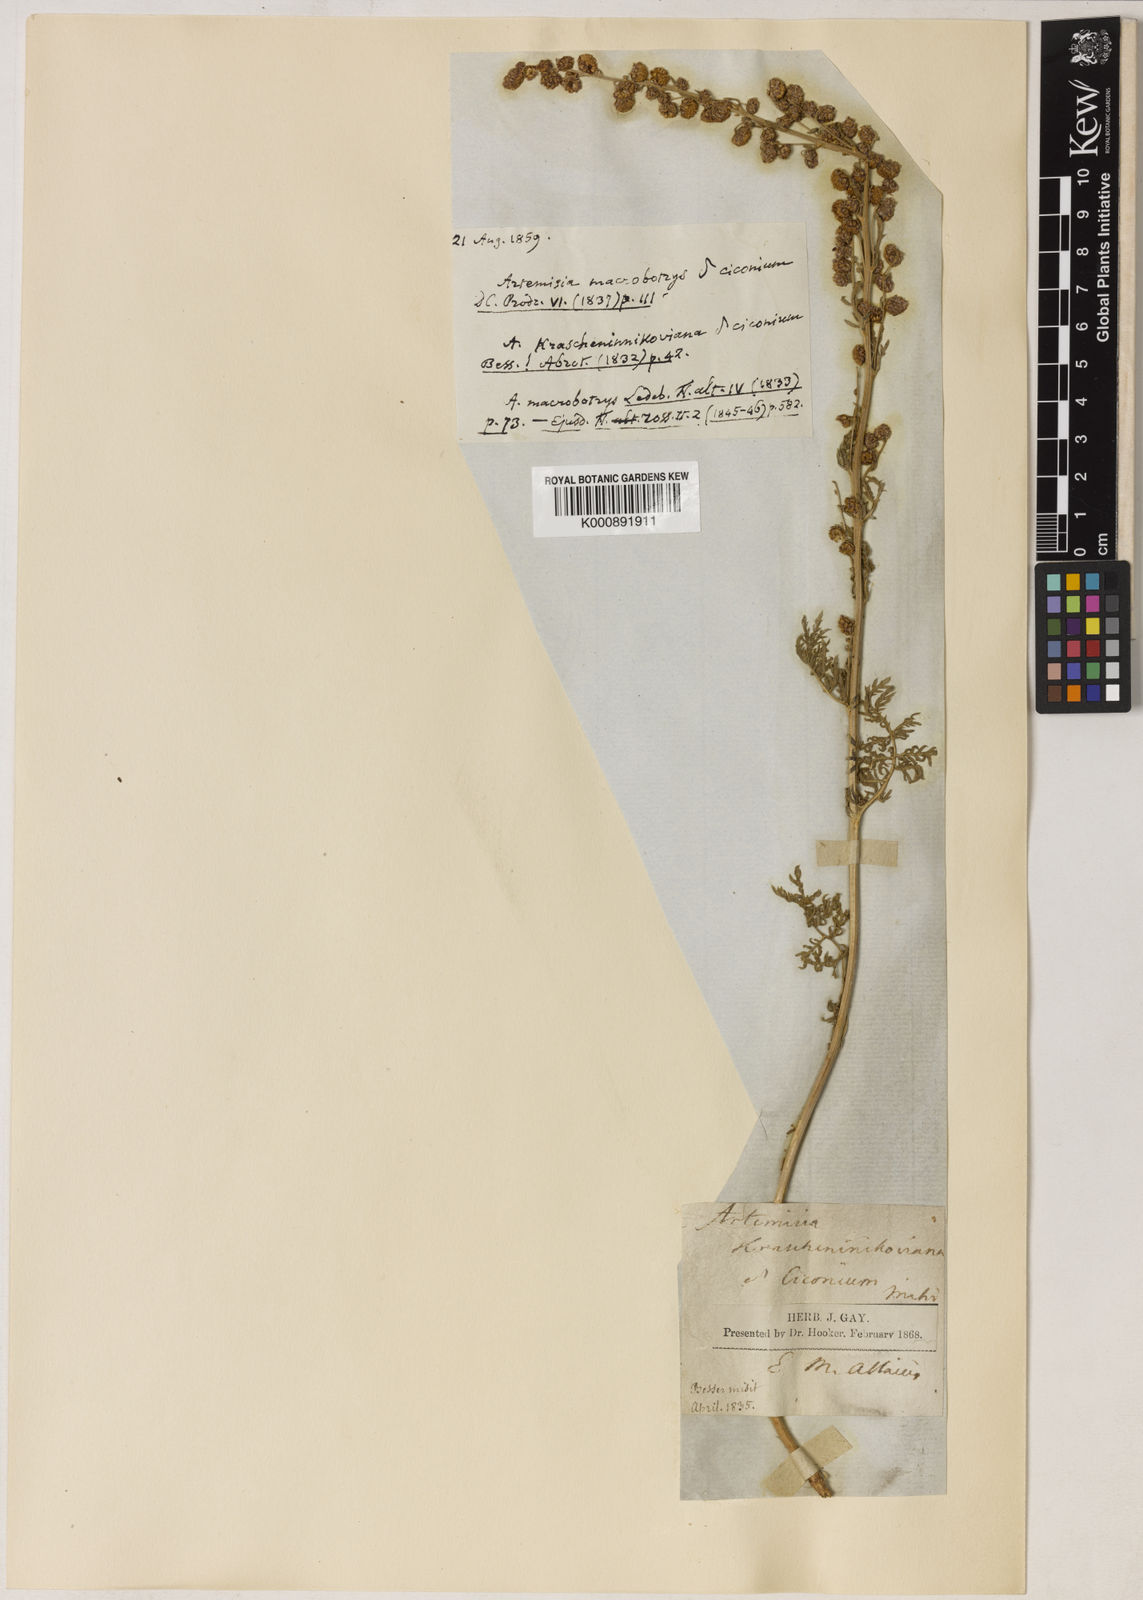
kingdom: Plantae
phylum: Tracheophyta
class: Magnoliopsida
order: Asterales
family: Asteraceae
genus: Artemisia
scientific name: Artemisia tanacetifolia
